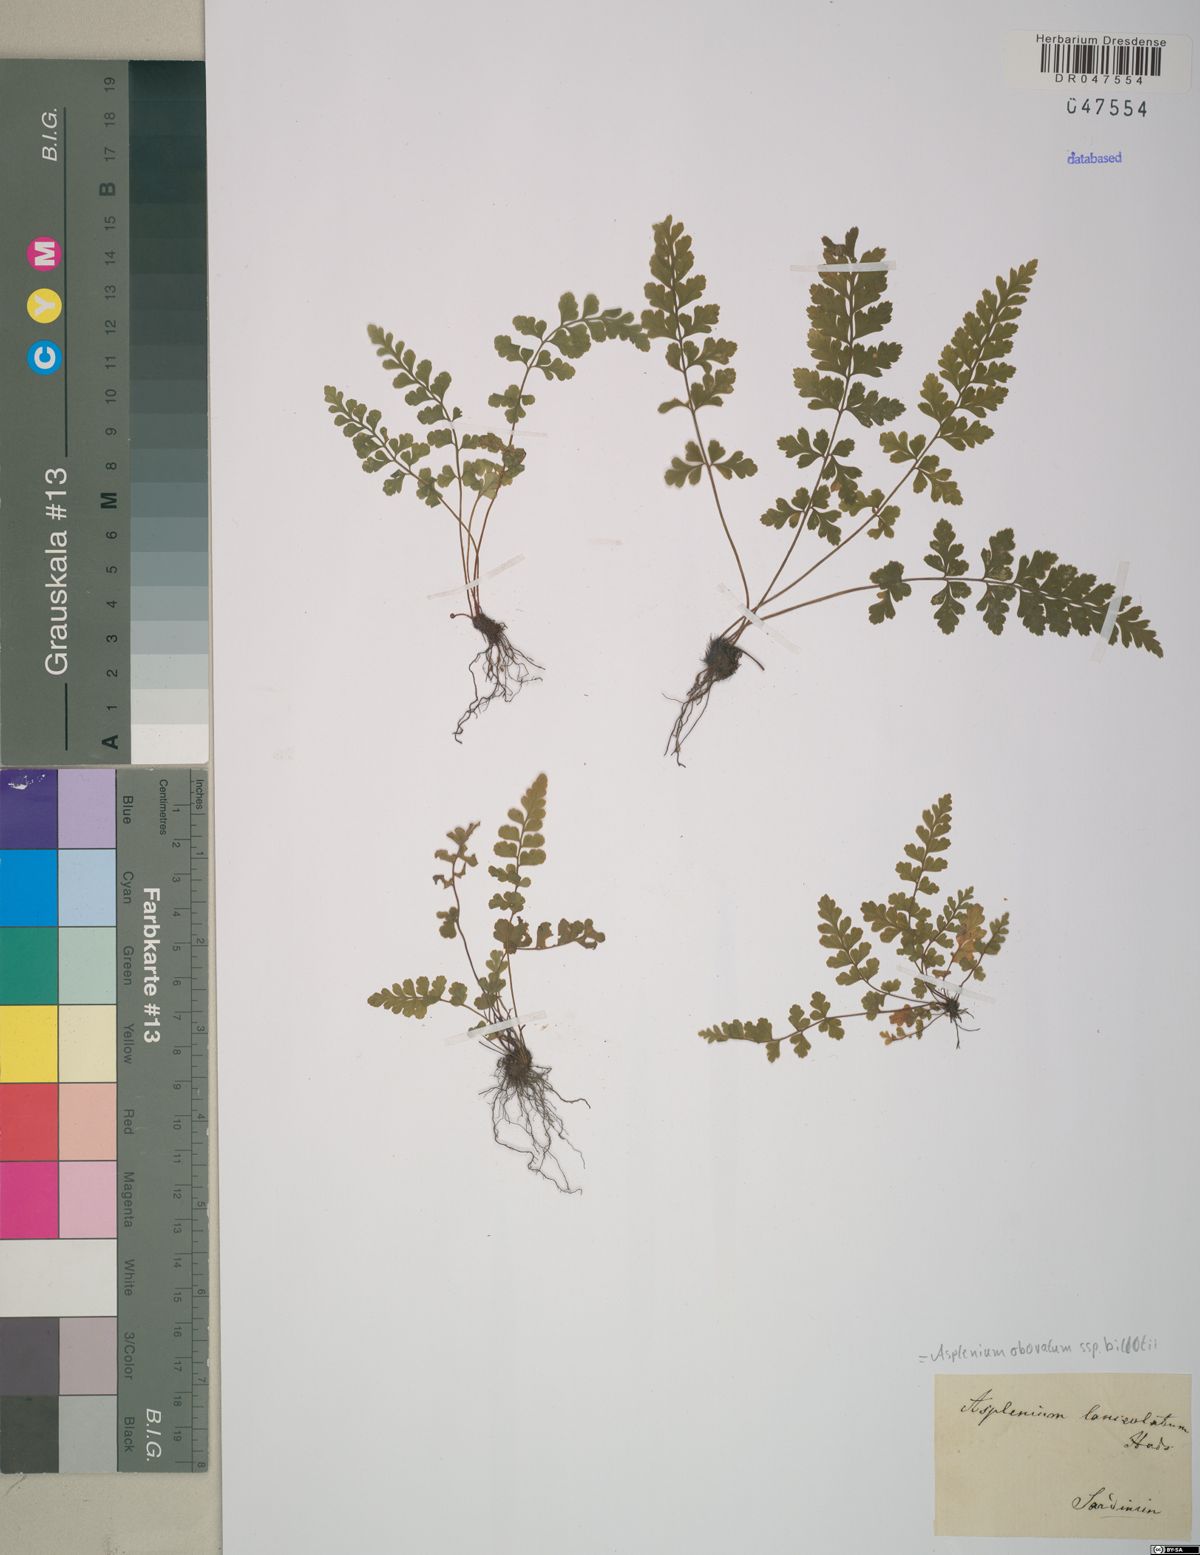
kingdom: Plantae
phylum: Tracheophyta
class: Polypodiopsida
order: Polypodiales
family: Aspleniaceae
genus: Asplenium
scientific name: Asplenium obovatum
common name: Lanceolate spleenwort
